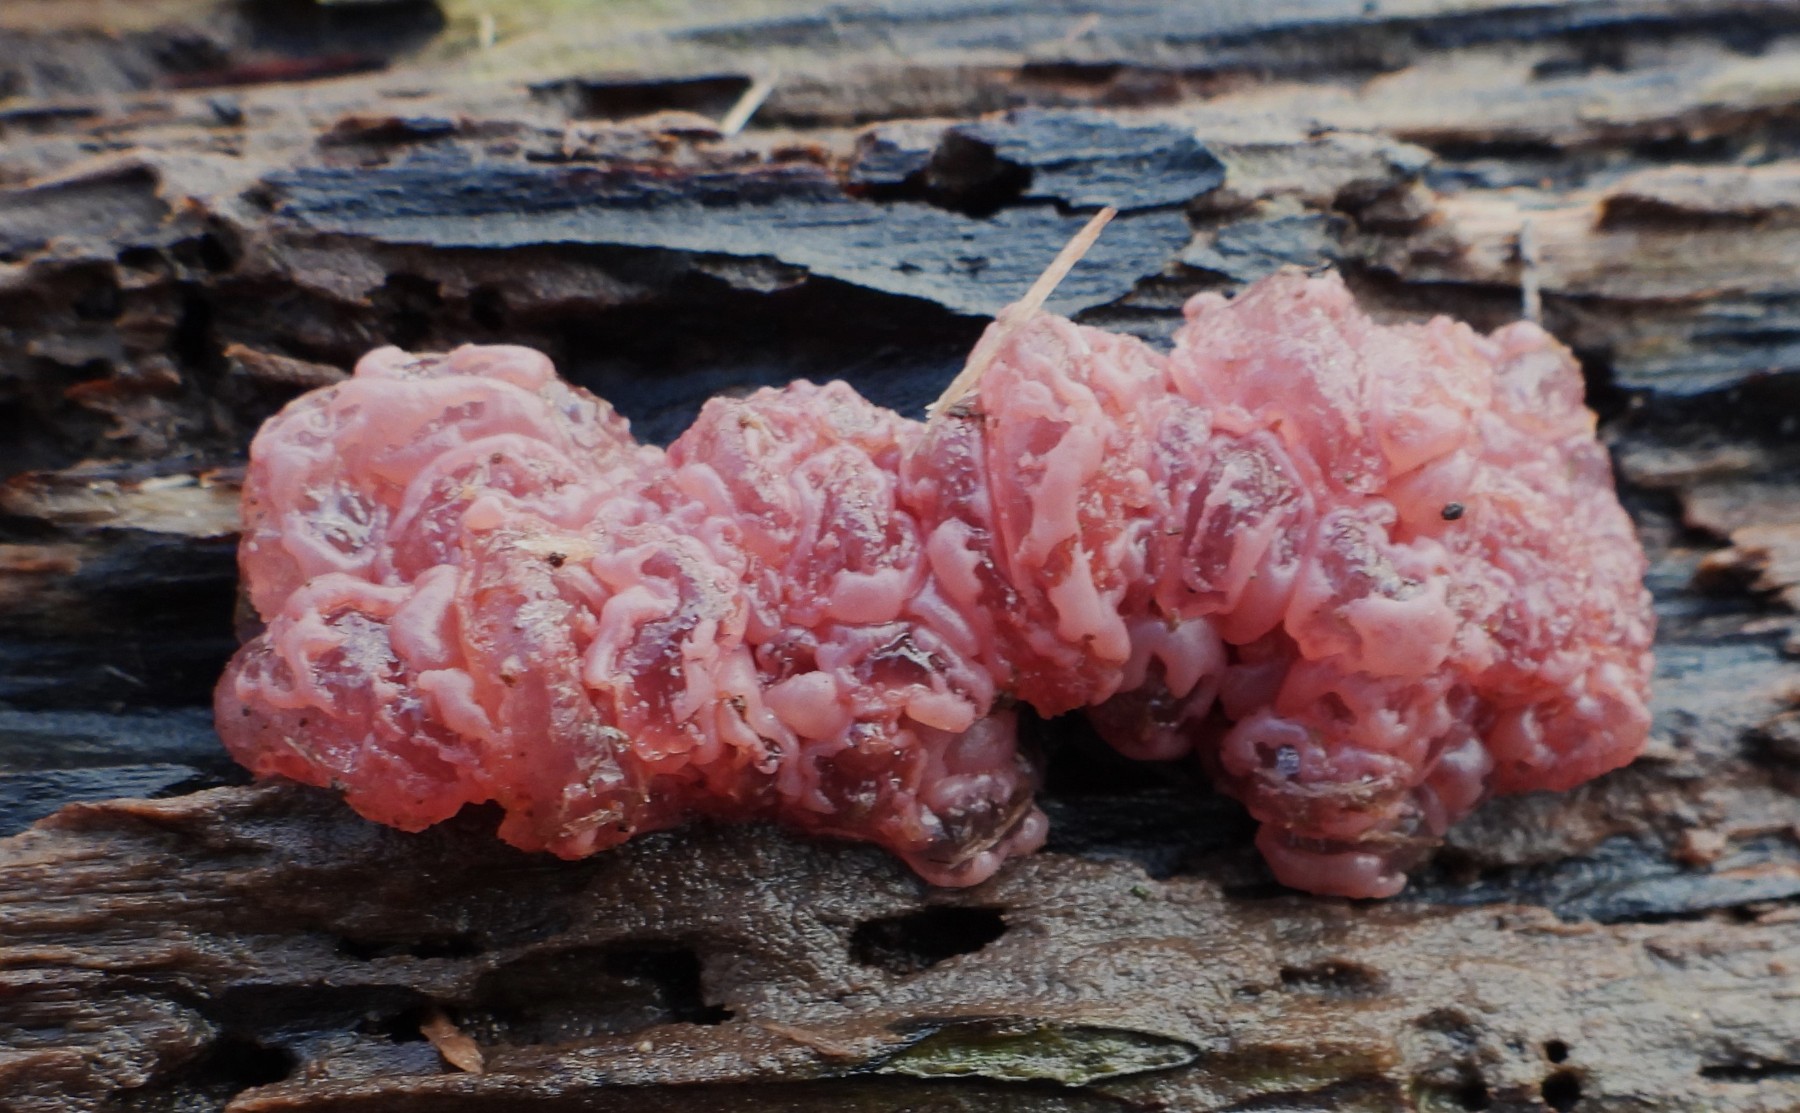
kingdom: Fungi
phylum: Ascomycota
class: Leotiomycetes
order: Helotiales
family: Gelatinodiscaceae
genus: Ascocoryne
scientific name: Ascocoryne sarcoides
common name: rødlilla sejskive
